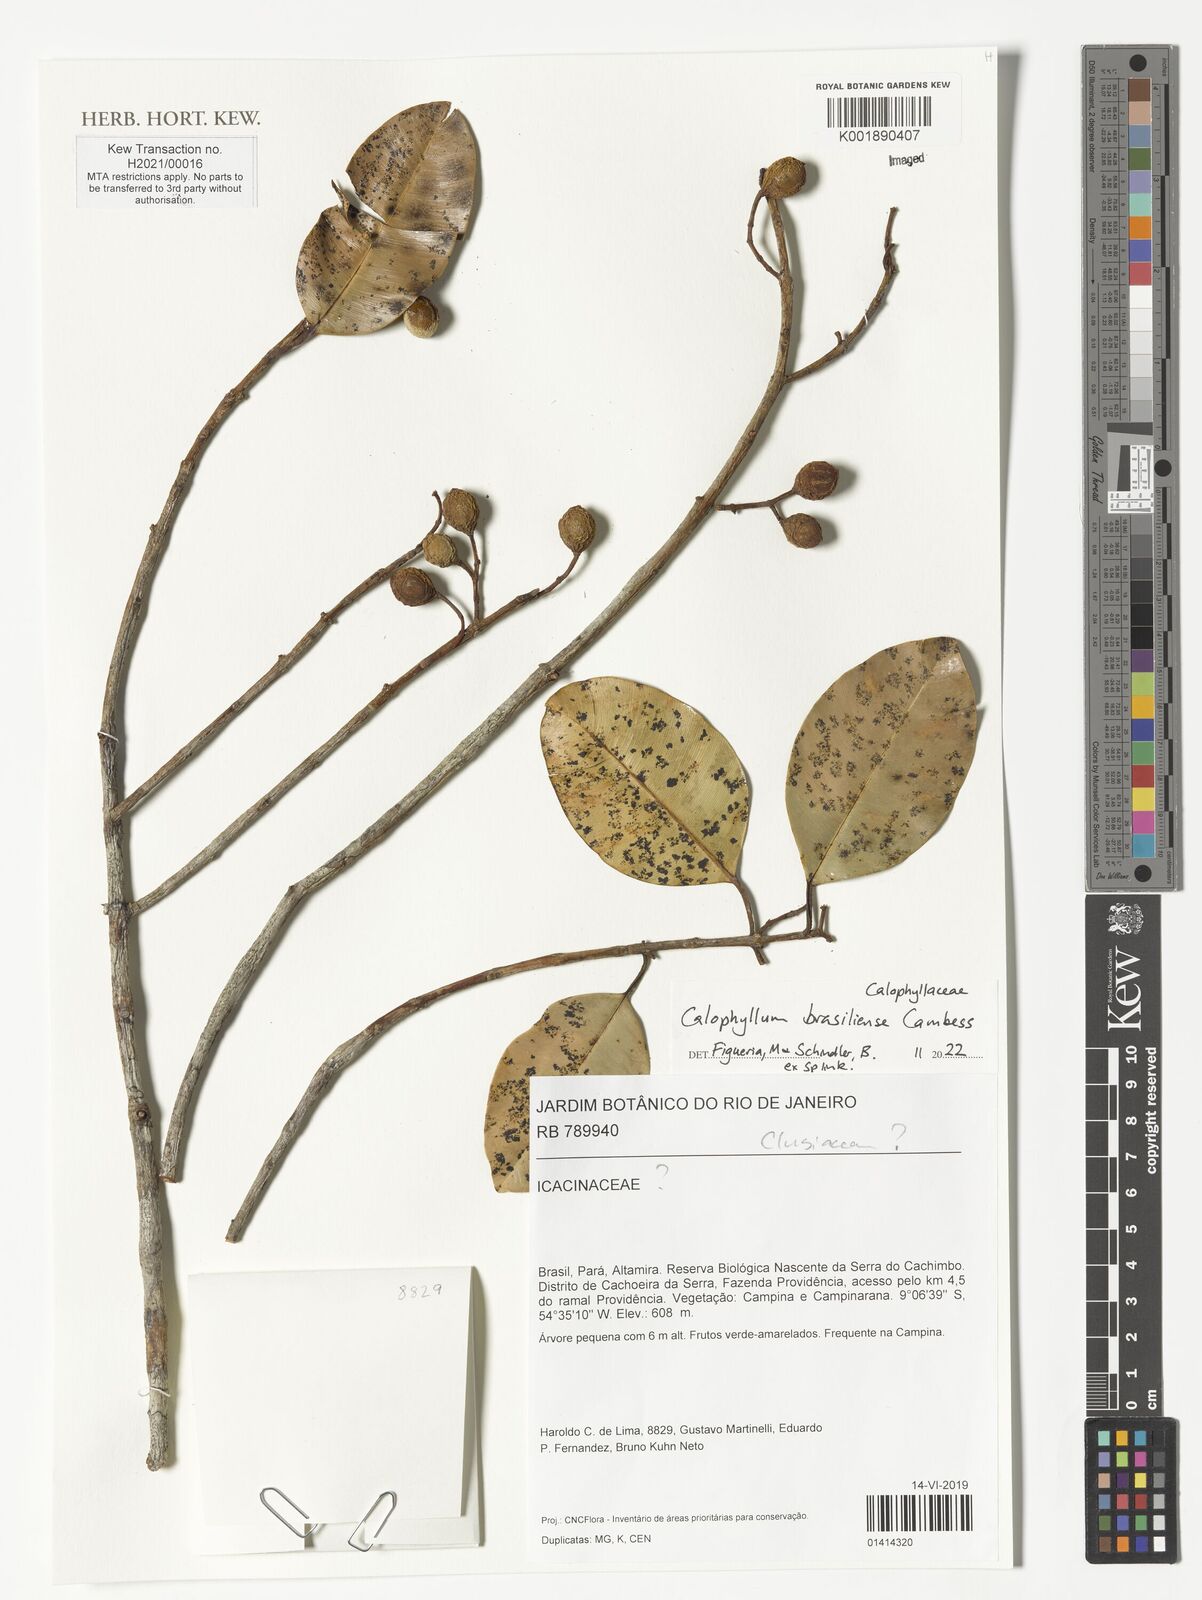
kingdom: Plantae
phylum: Tracheophyta
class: Magnoliopsida
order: Malpighiales
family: Calophyllaceae
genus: Calophyllum
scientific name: Calophyllum brasiliense
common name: Santa maria
